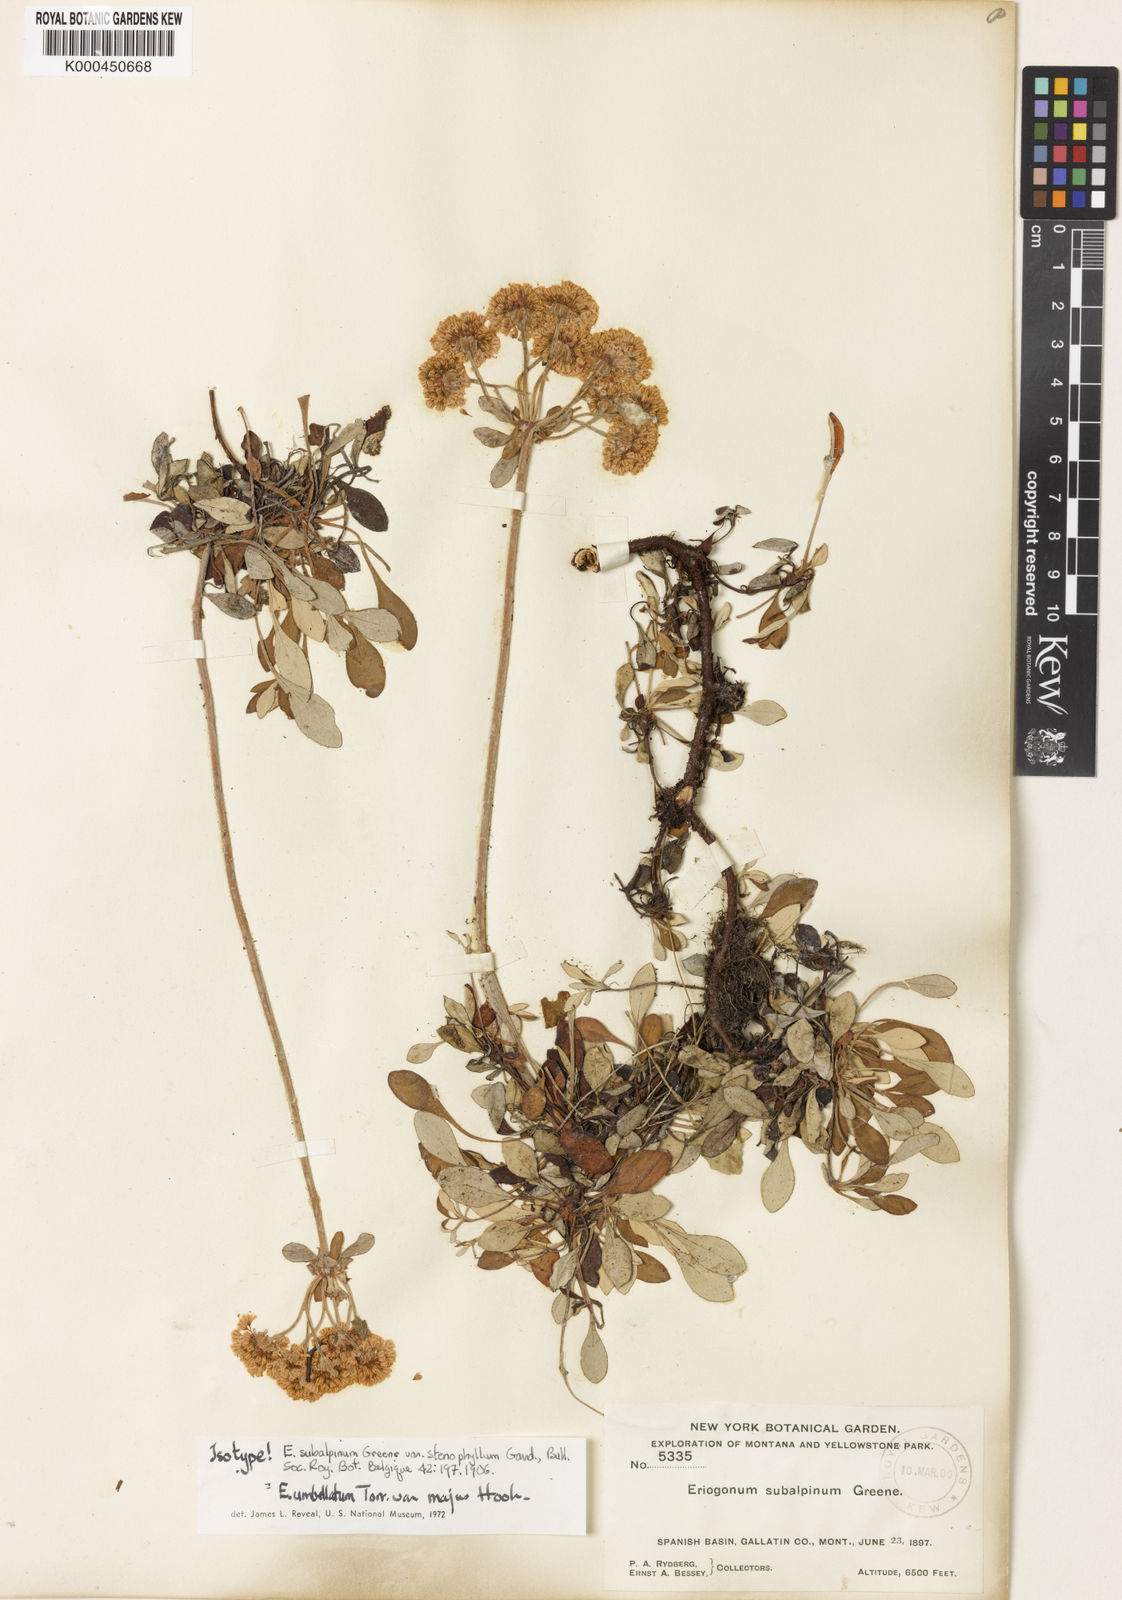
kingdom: Plantae
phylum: Tracheophyta
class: Magnoliopsida
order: Caryophyllales
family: Polygonaceae
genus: Eriogonum
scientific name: Eriogonum umbellatum
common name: Sulfur-buckwheat
